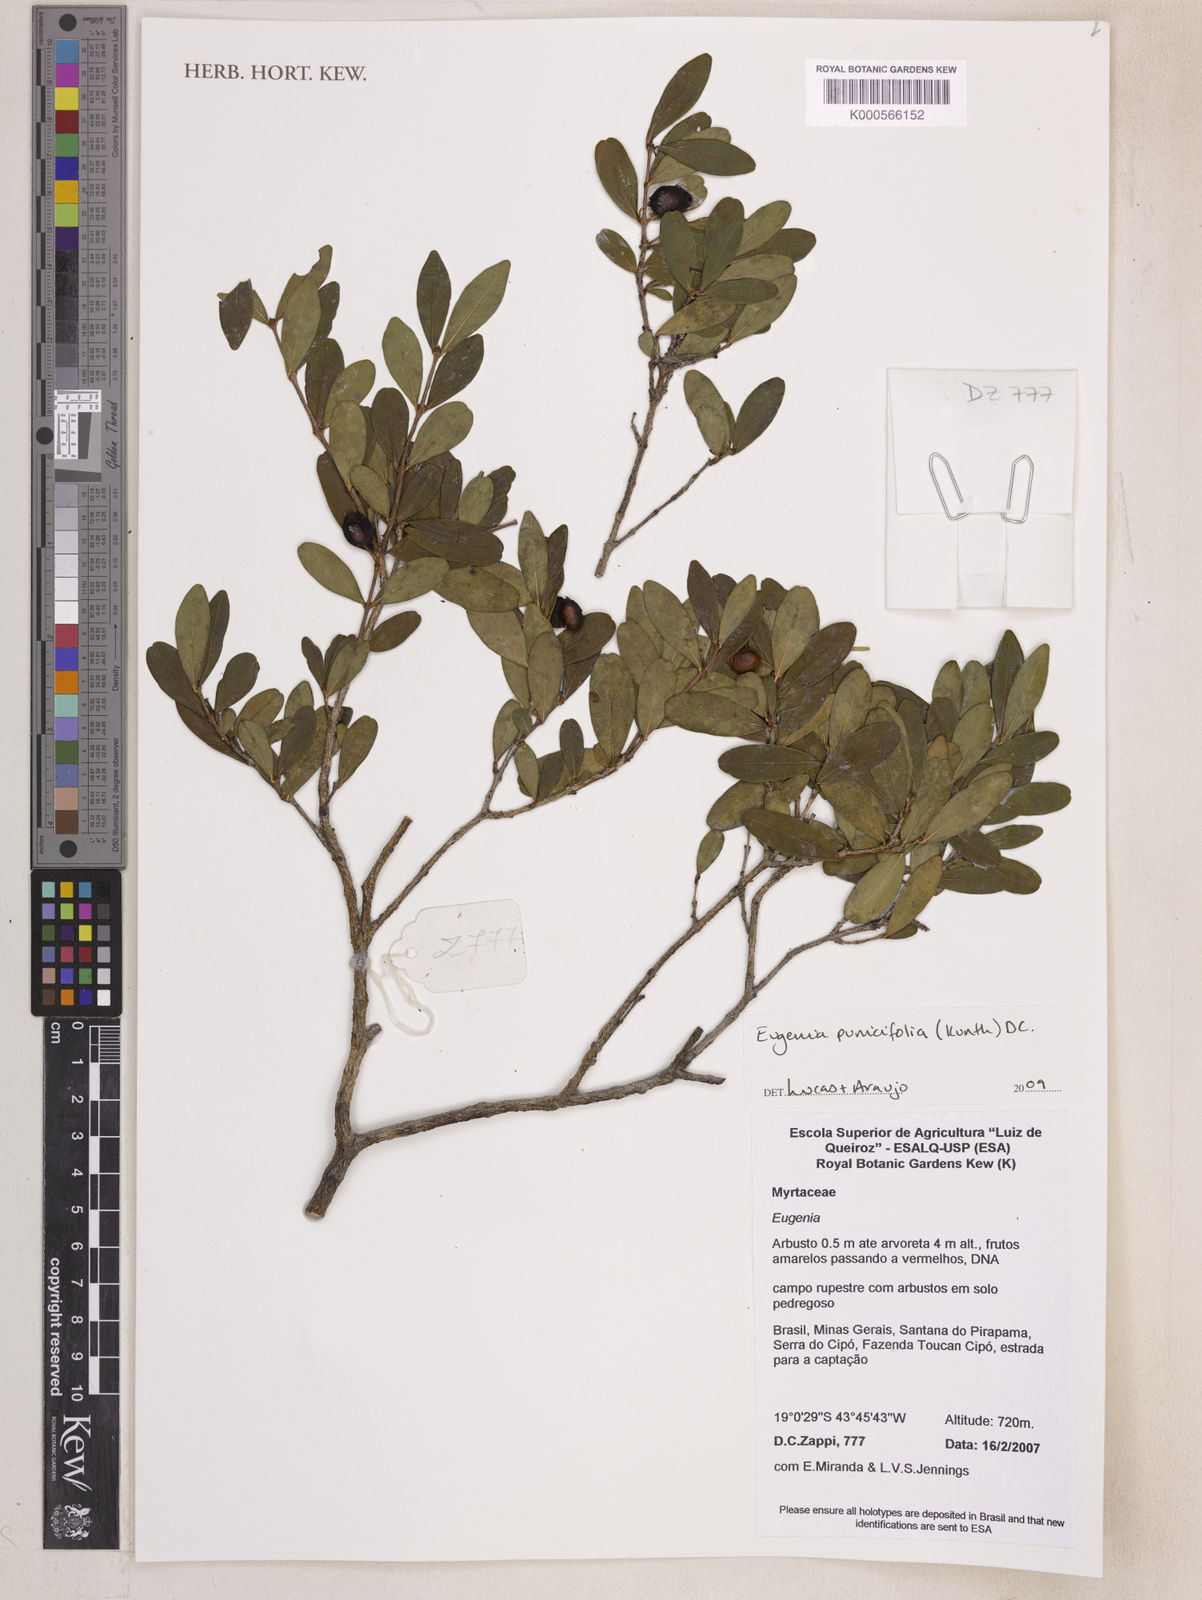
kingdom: Plantae
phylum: Tracheophyta
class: Magnoliopsida
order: Myrtales
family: Myrtaceae
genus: Eugenia
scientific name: Eugenia punicifolia
